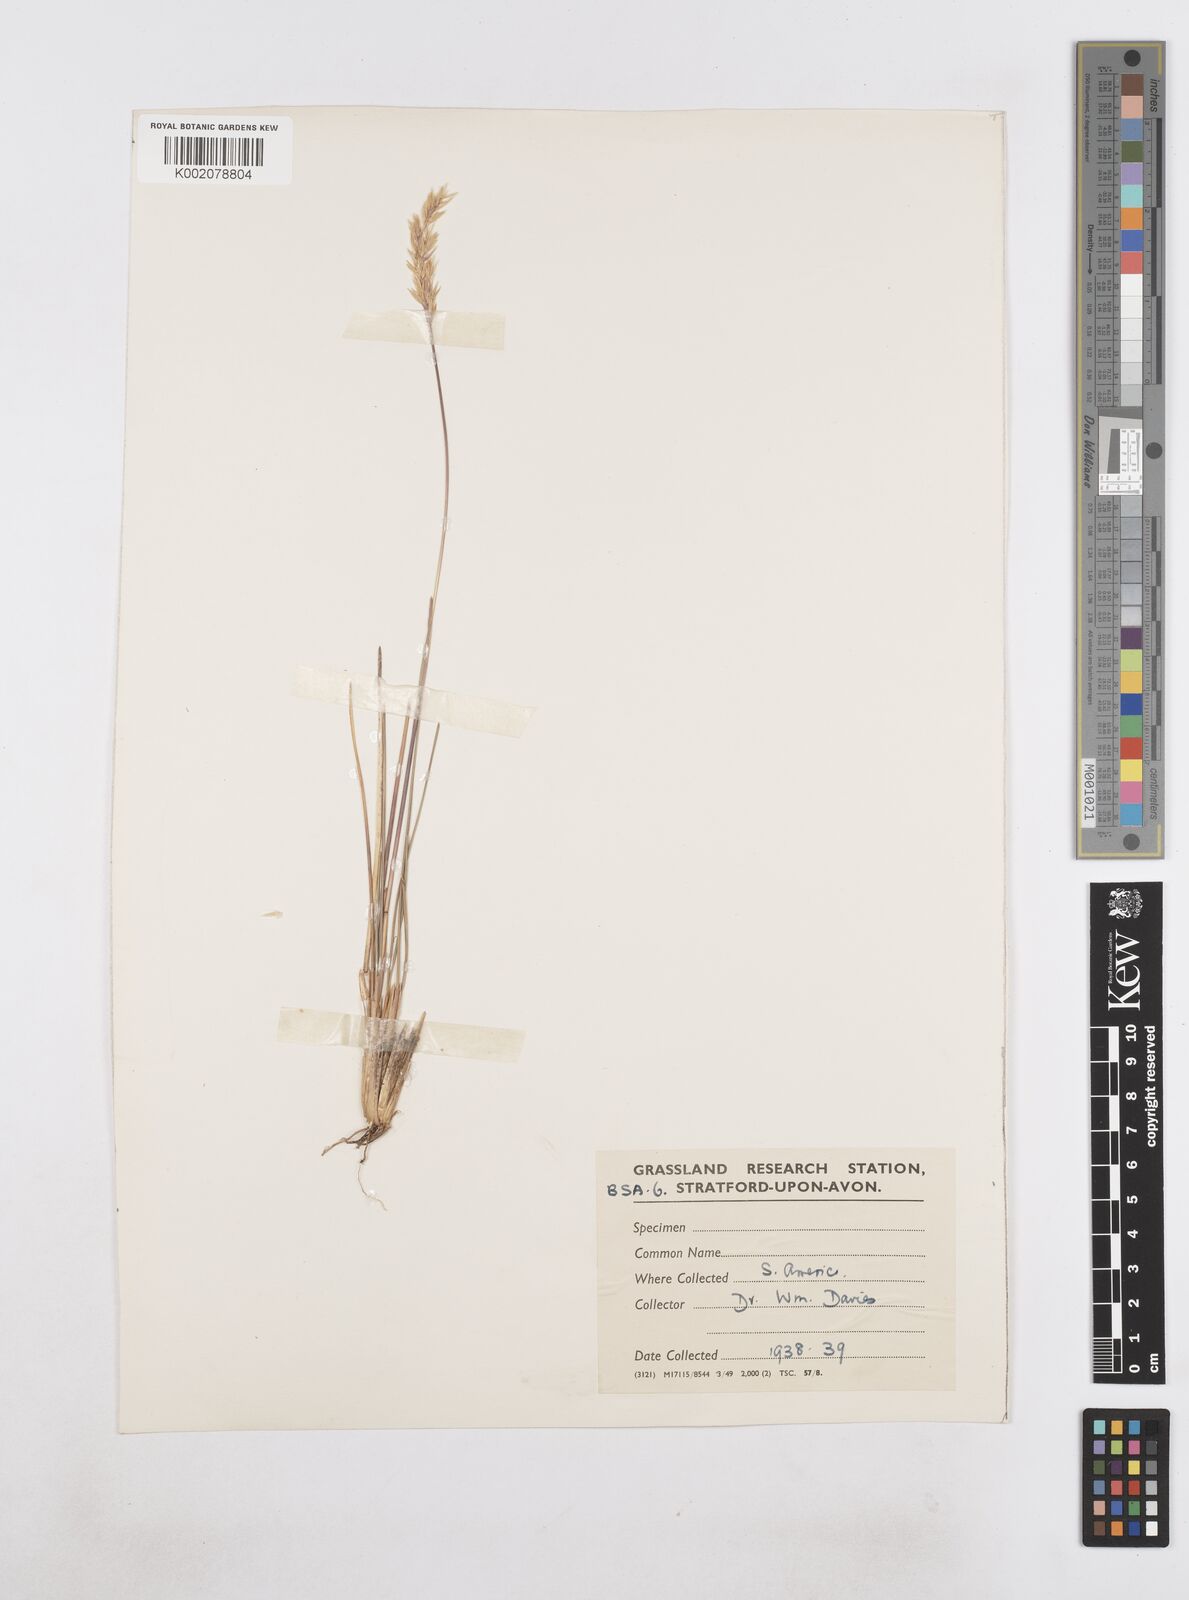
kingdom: Plantae
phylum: Tracheophyta
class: Liliopsida
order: Poales
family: Poaceae
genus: Poa
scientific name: Poa
